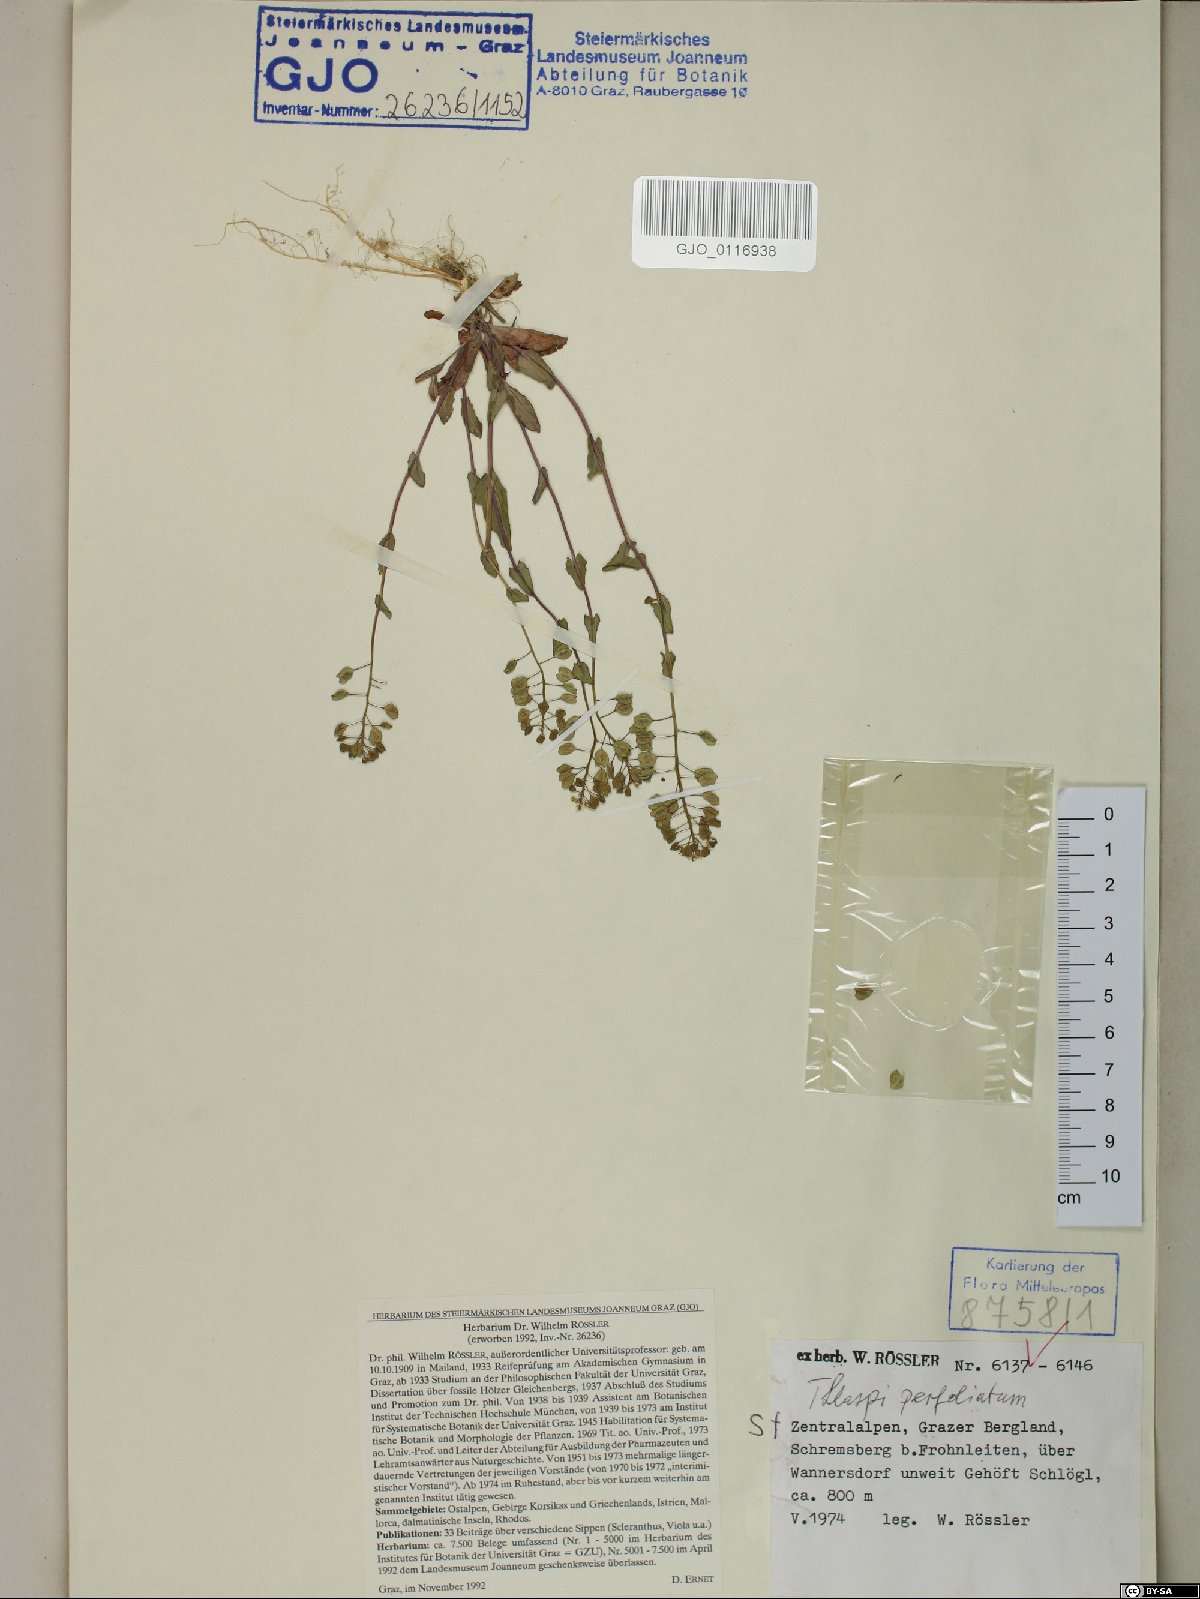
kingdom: Plantae
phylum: Tracheophyta
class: Magnoliopsida
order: Brassicales
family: Brassicaceae
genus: Noccaea
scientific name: Noccaea perfoliata
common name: Perfoliate pennycress
